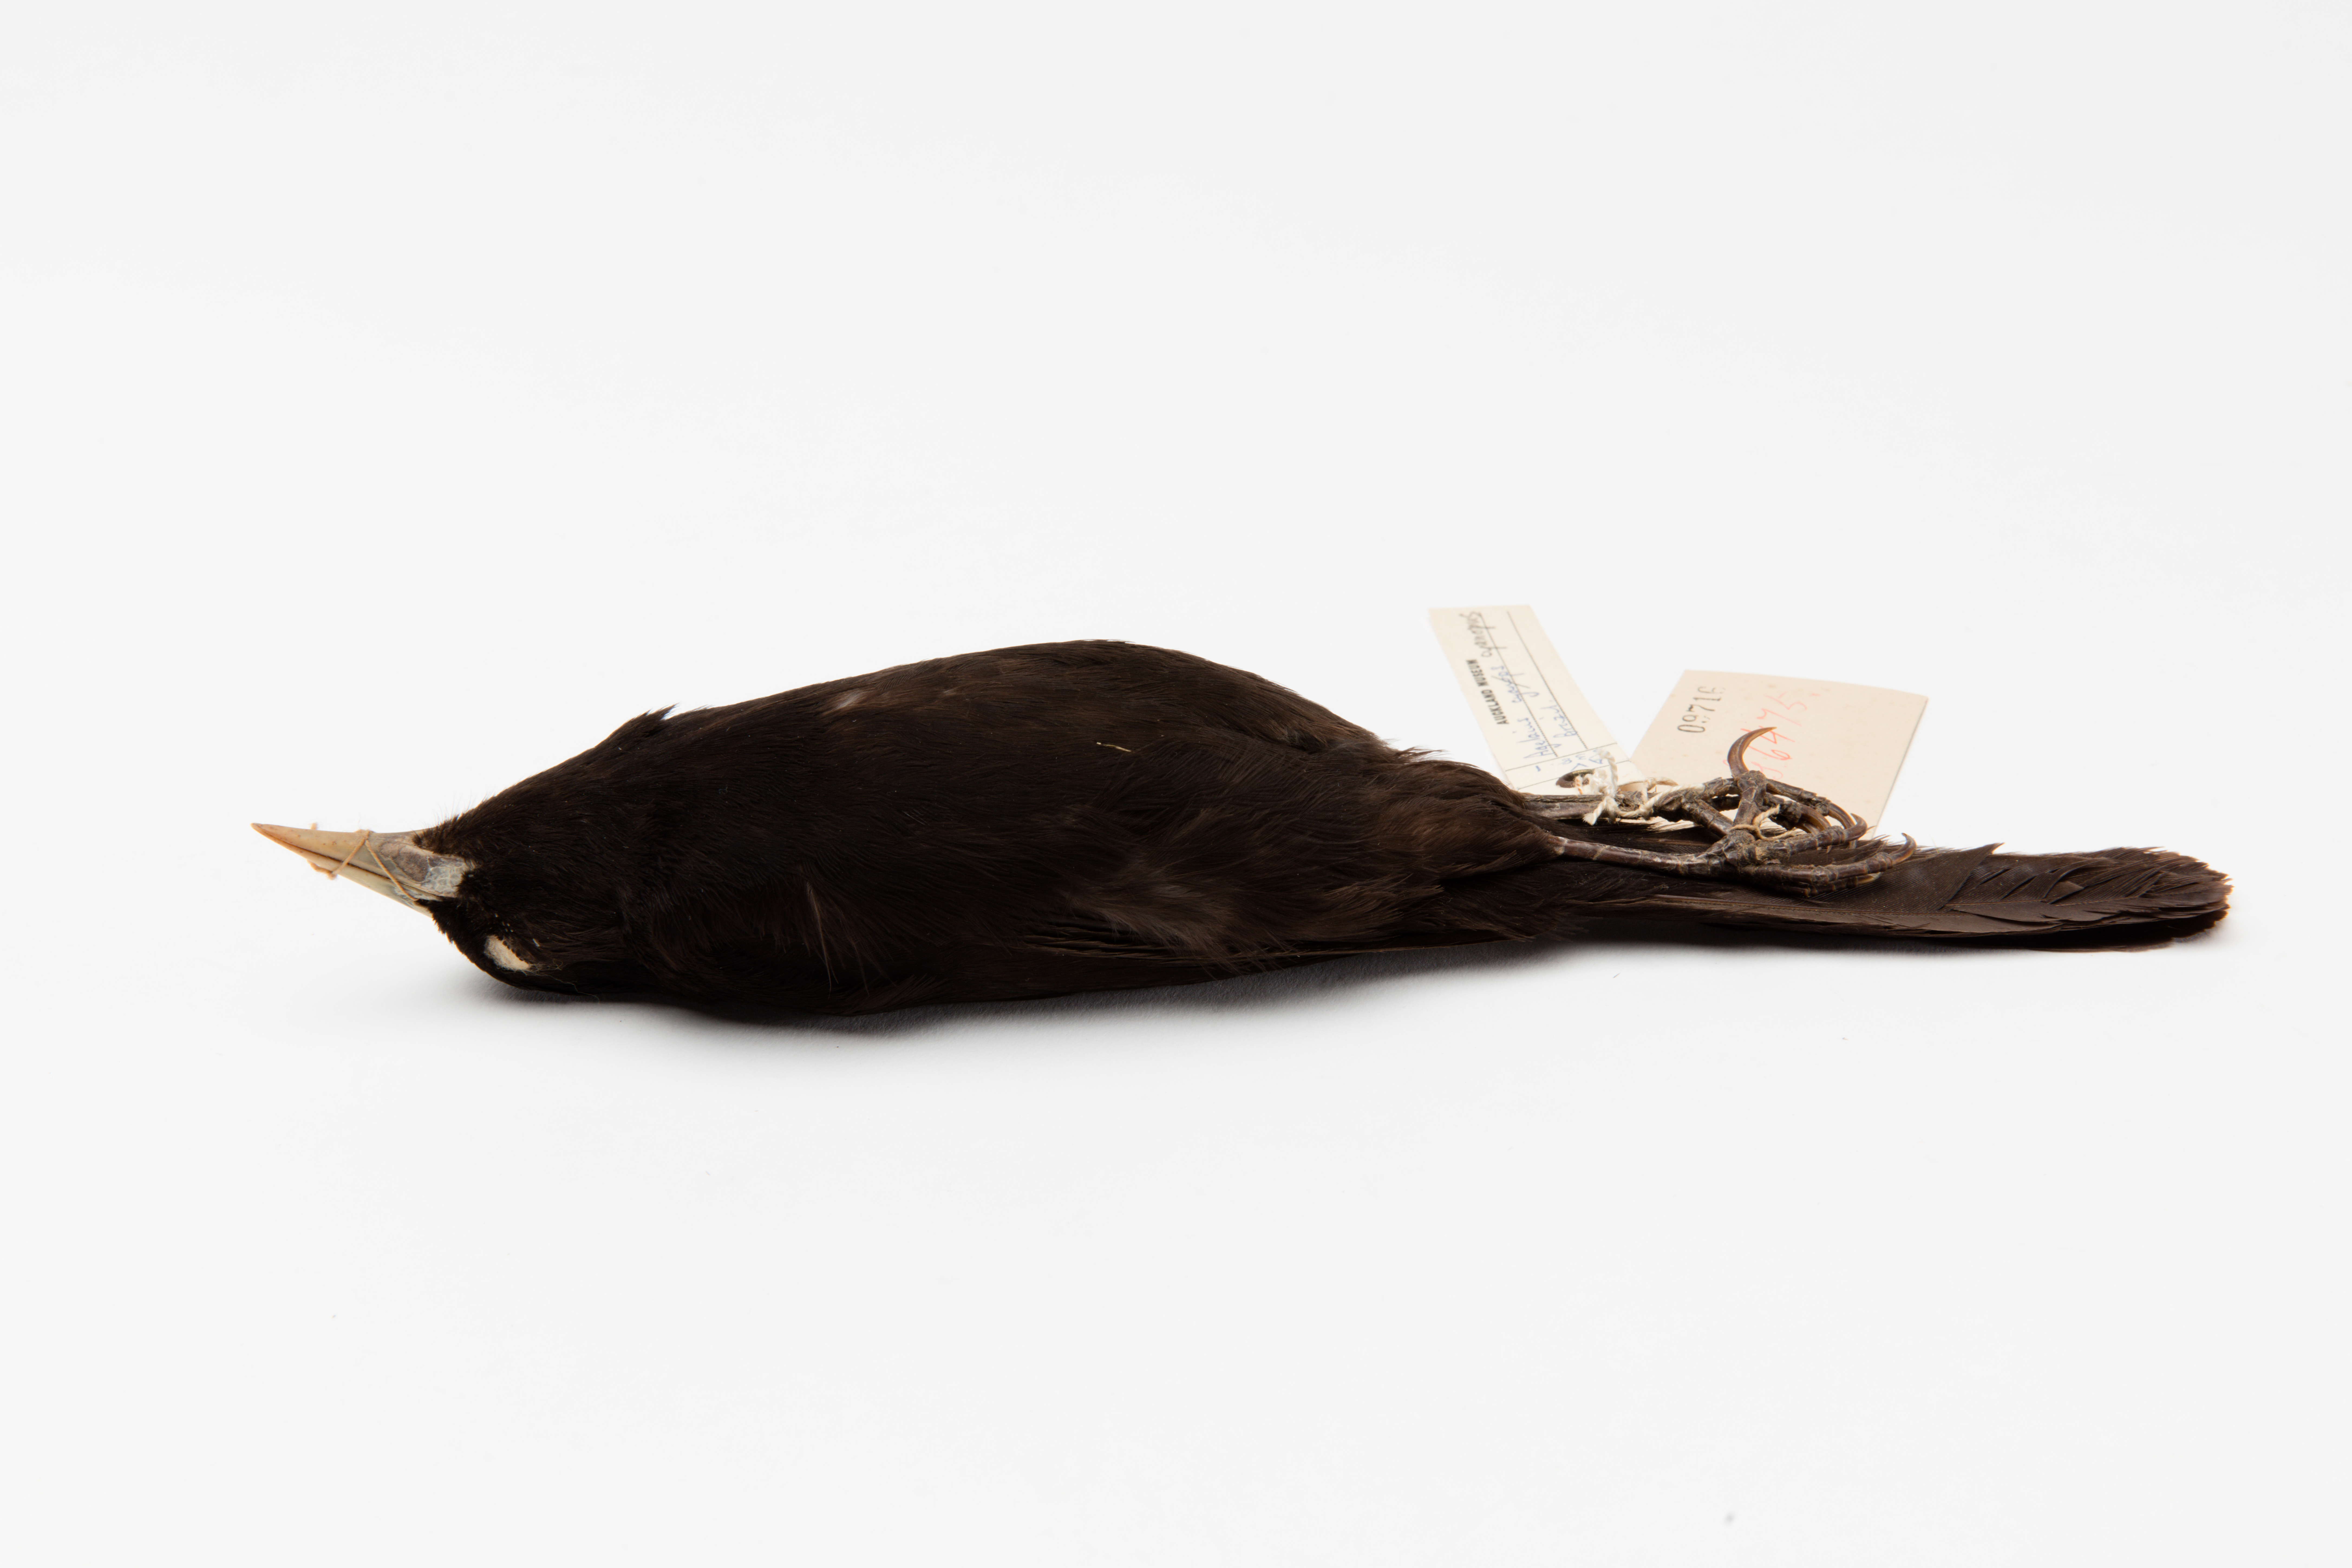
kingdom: Animalia
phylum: Chordata
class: Aves
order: Passeriformes
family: Icteridae
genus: Agelasticus
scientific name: Agelasticus cyanopus
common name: Unicolored blackbird
